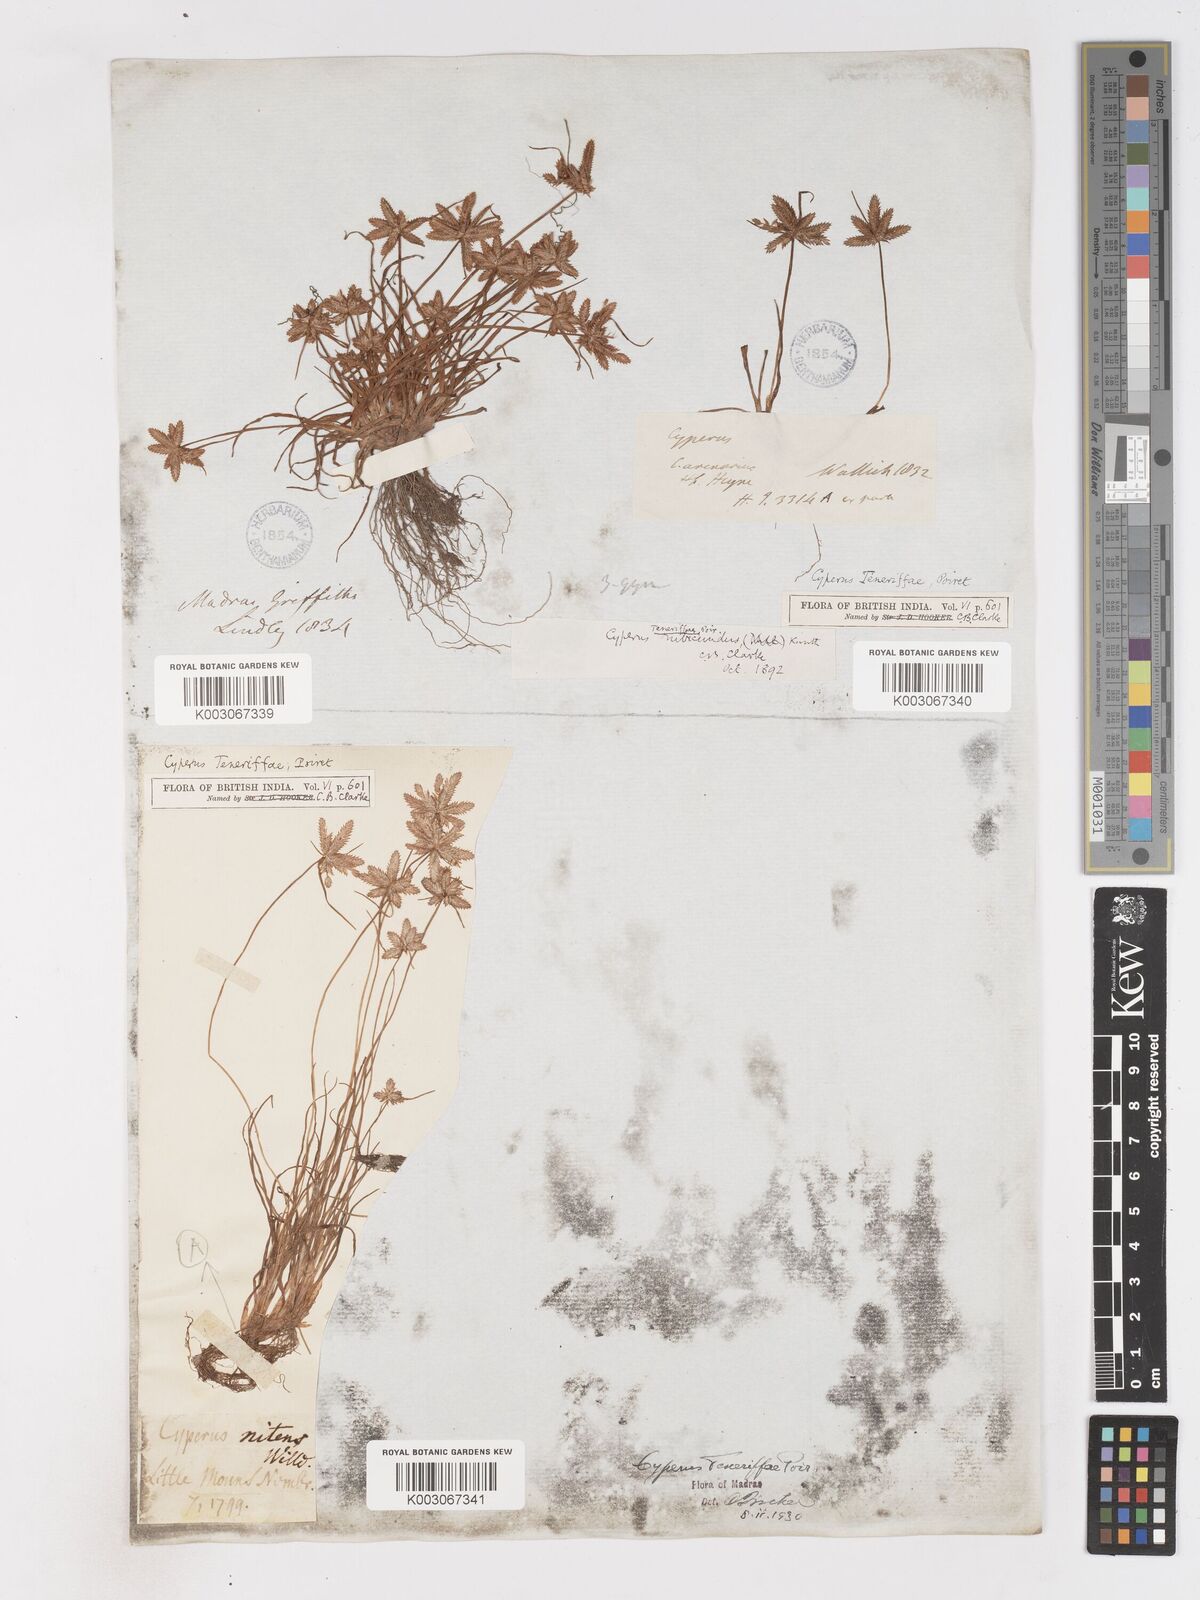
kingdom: Plantae
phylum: Tracheophyta
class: Liliopsida
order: Poales
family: Cyperaceae
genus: Cyperus
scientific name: Cyperus rubicundus
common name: Coco-grass
